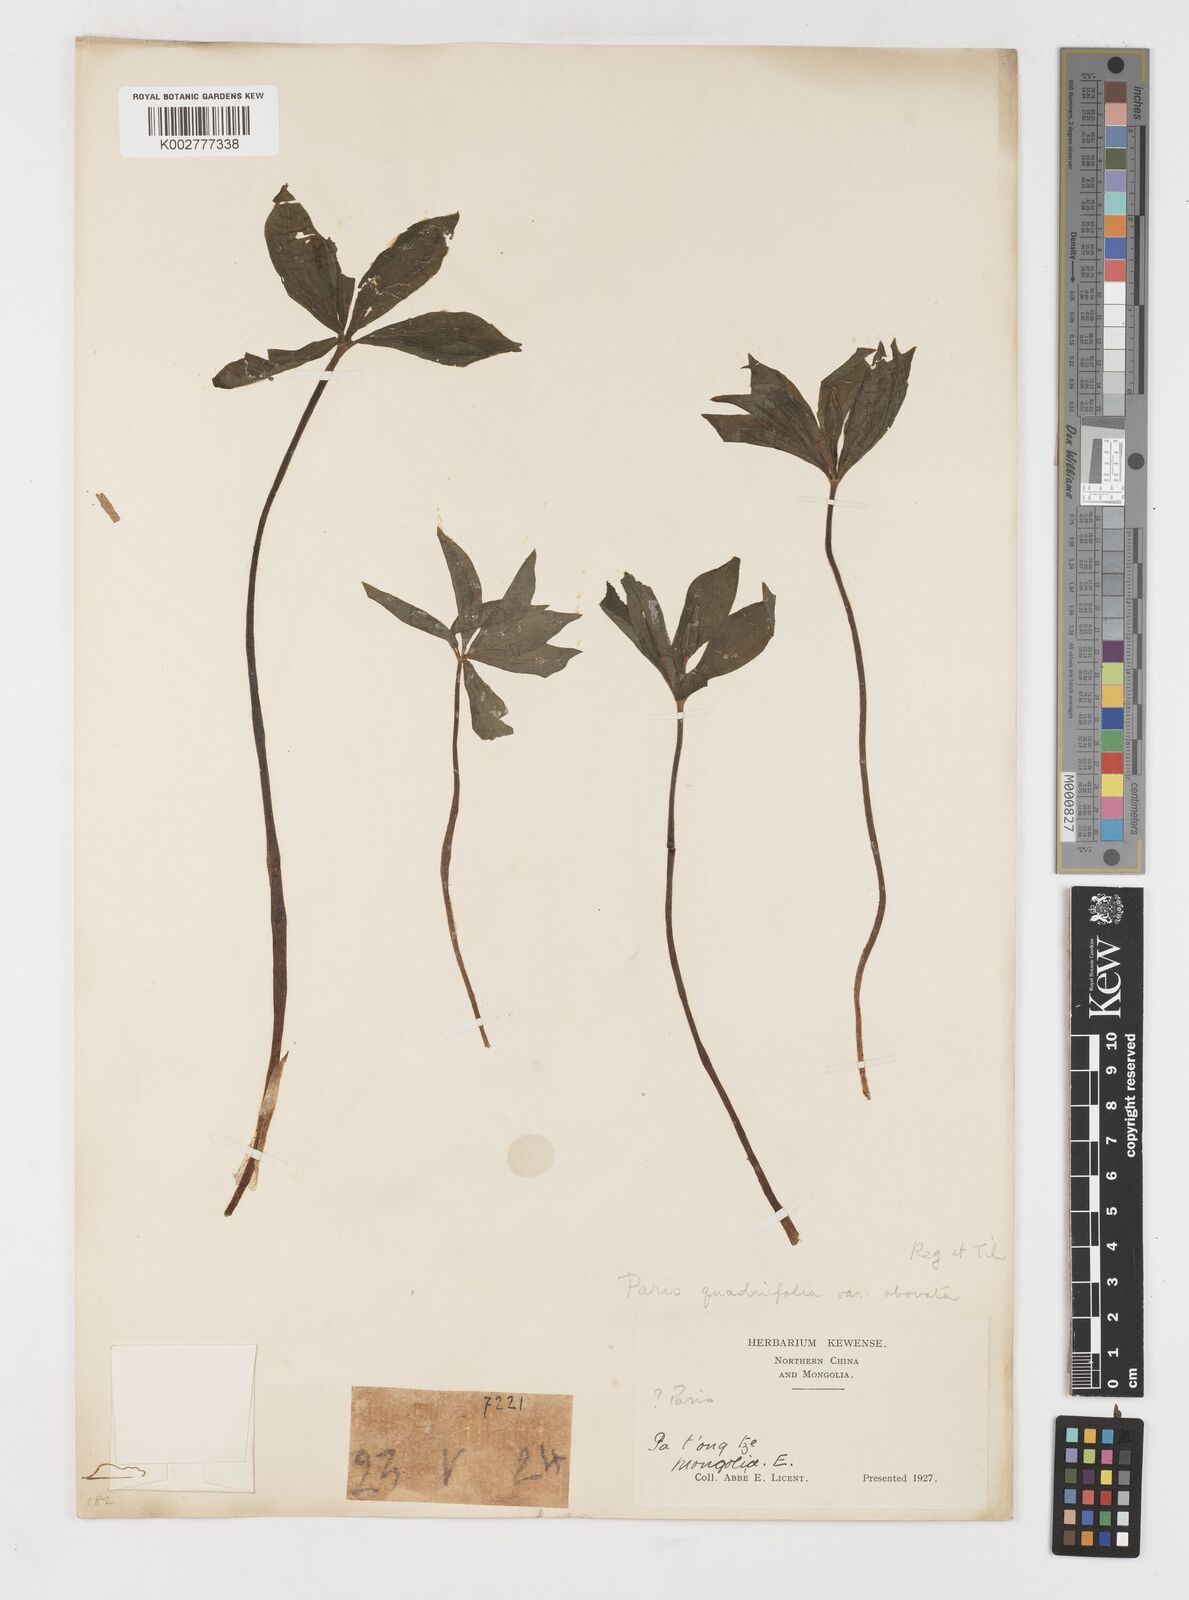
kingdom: Plantae
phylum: Tracheophyta
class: Liliopsida
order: Liliales
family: Melanthiaceae
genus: Paris
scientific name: Paris verticillata
